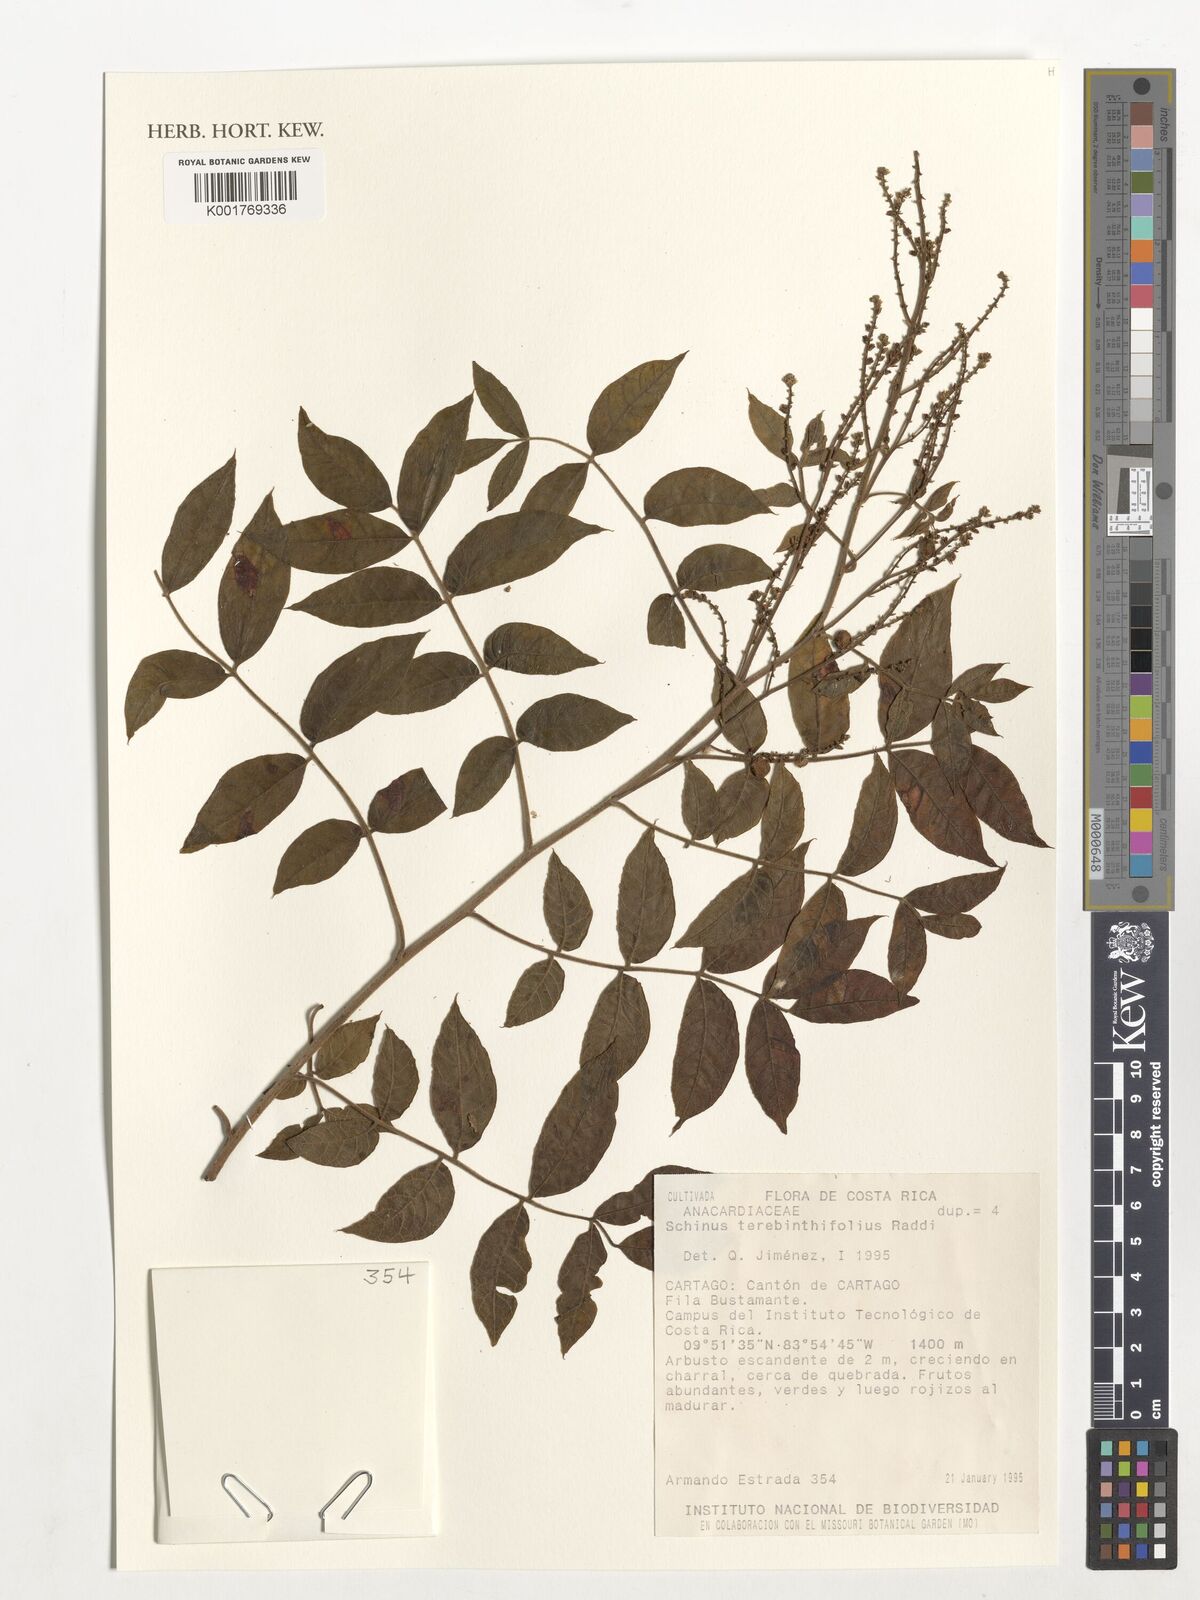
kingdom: Plantae
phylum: Tracheophyta
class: Magnoliopsida
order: Sapindales
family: Anacardiaceae
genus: Schinus
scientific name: Schinus
